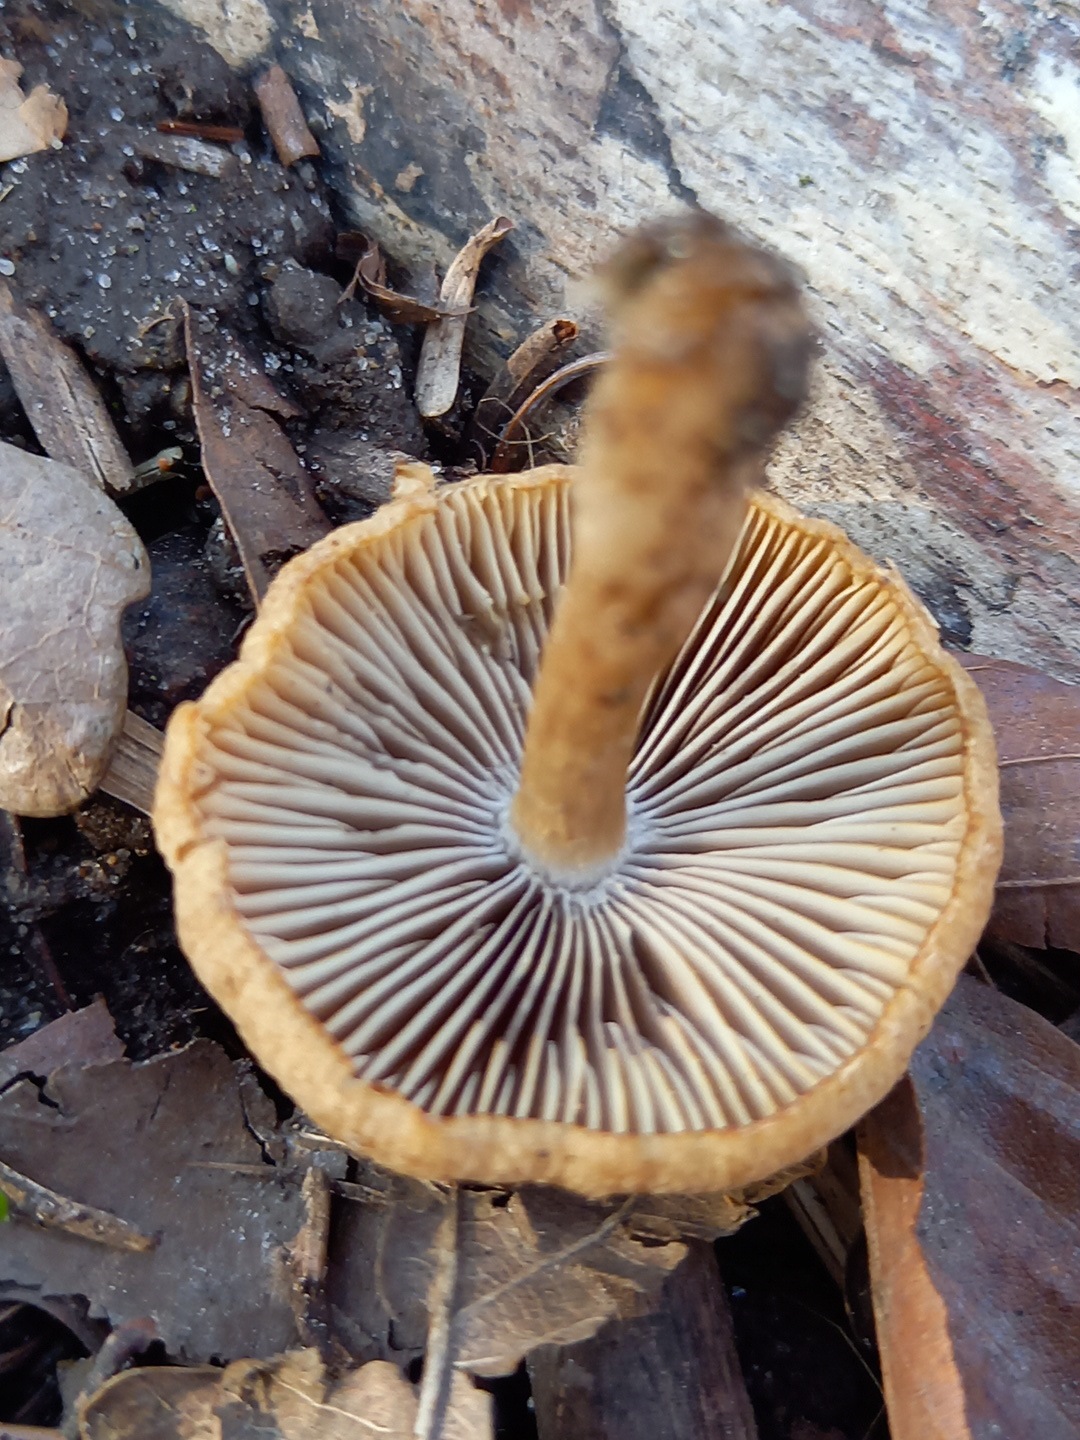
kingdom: Fungi
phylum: Basidiomycota
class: Agaricomycetes
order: Agaricales
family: Psathyrellaceae
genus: Psathyrella
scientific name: Psathyrella
